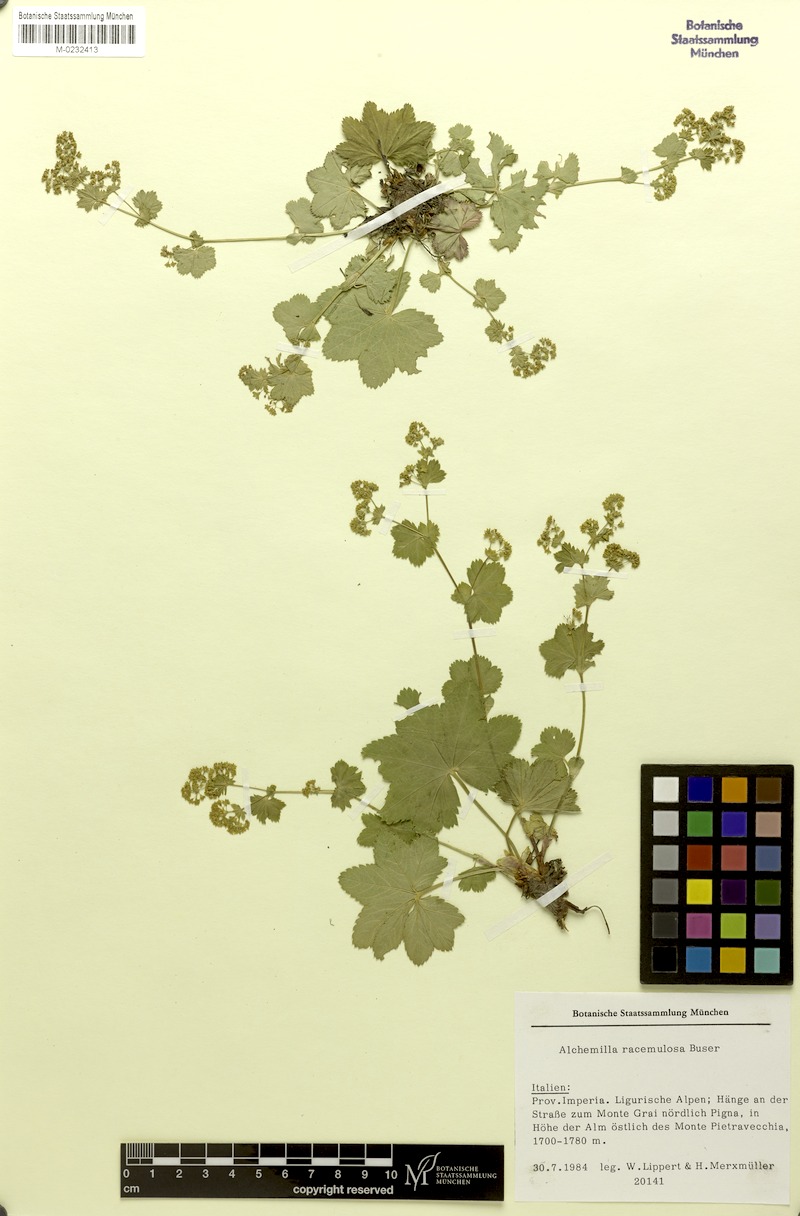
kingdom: Plantae
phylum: Tracheophyta
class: Magnoliopsida
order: Rosales
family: Rosaceae
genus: Alchemilla
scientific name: Alchemilla racemulosa
